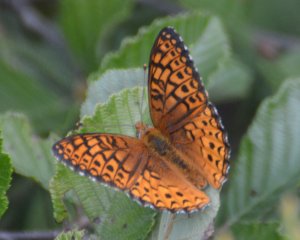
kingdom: Animalia
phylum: Arthropoda
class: Insecta
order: Lepidoptera
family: Nymphalidae
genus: Speyeria
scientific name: Speyeria atlantis
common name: Atlantis Fritillary
